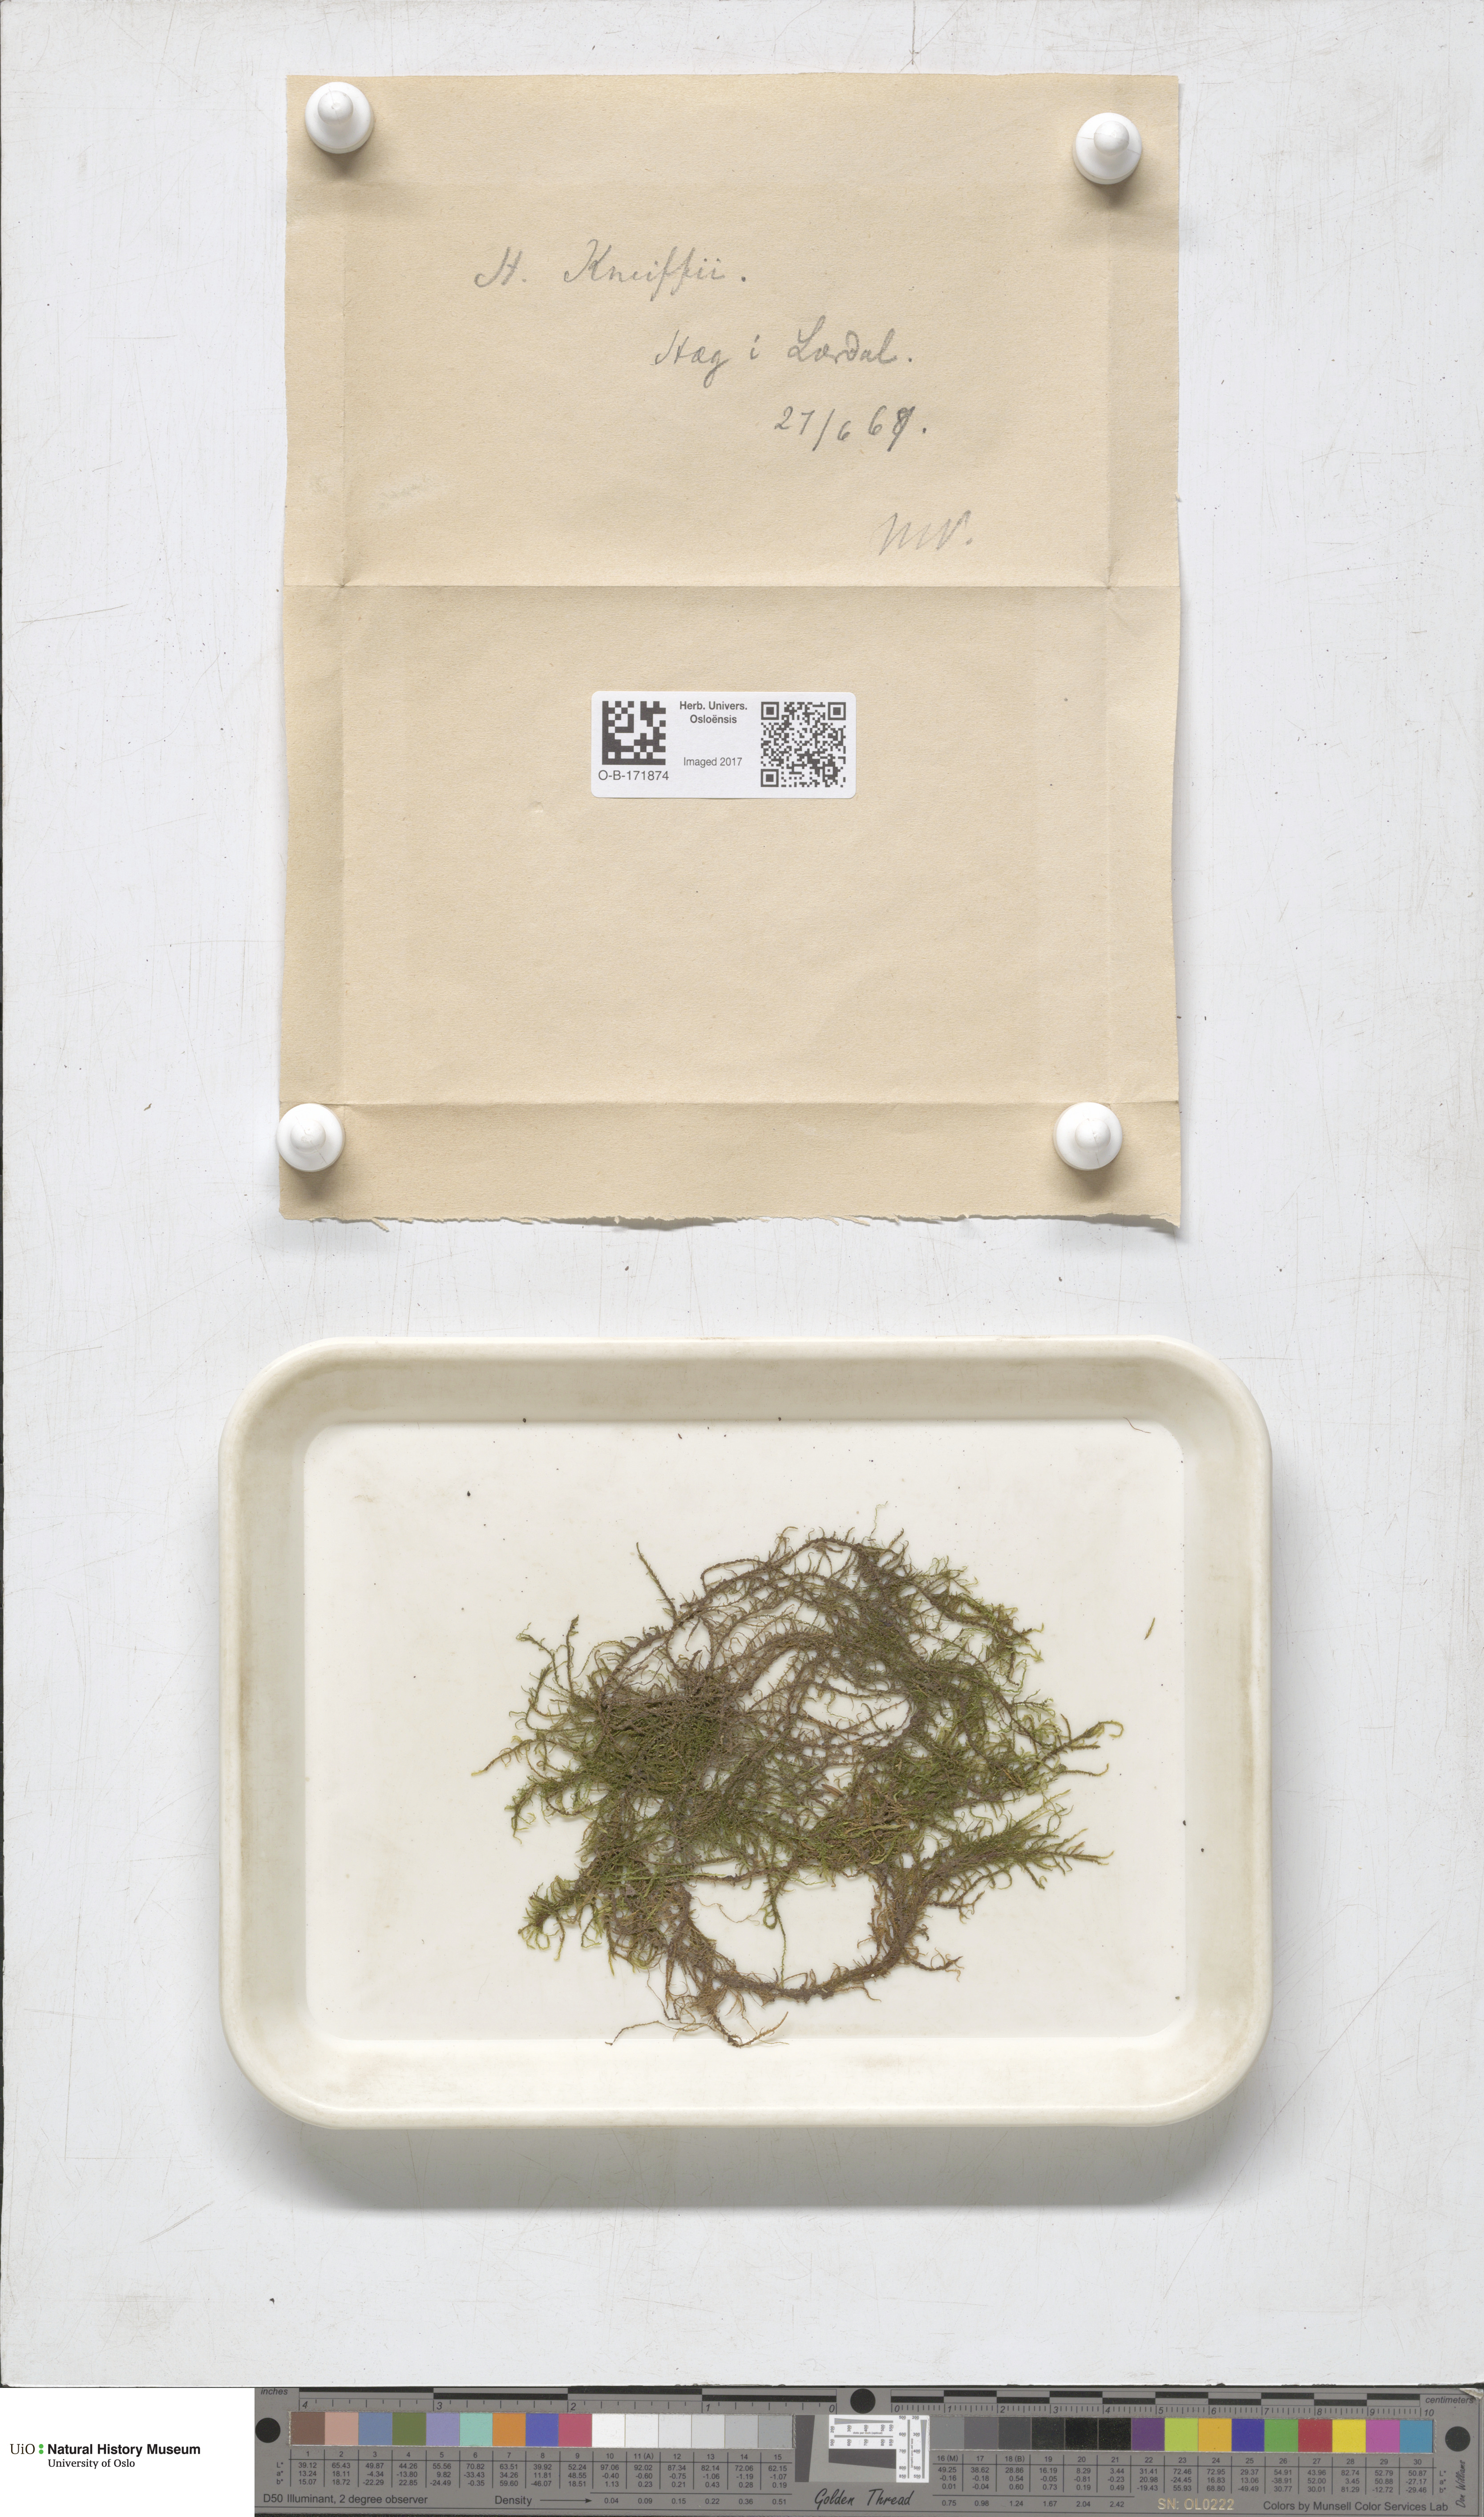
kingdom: Plantae
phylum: Bryophyta
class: Bryopsida
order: Hypnales
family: Amblystegiaceae
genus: Drepanocladus
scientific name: Drepanocladus aduncus
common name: Knieff's hook moss
